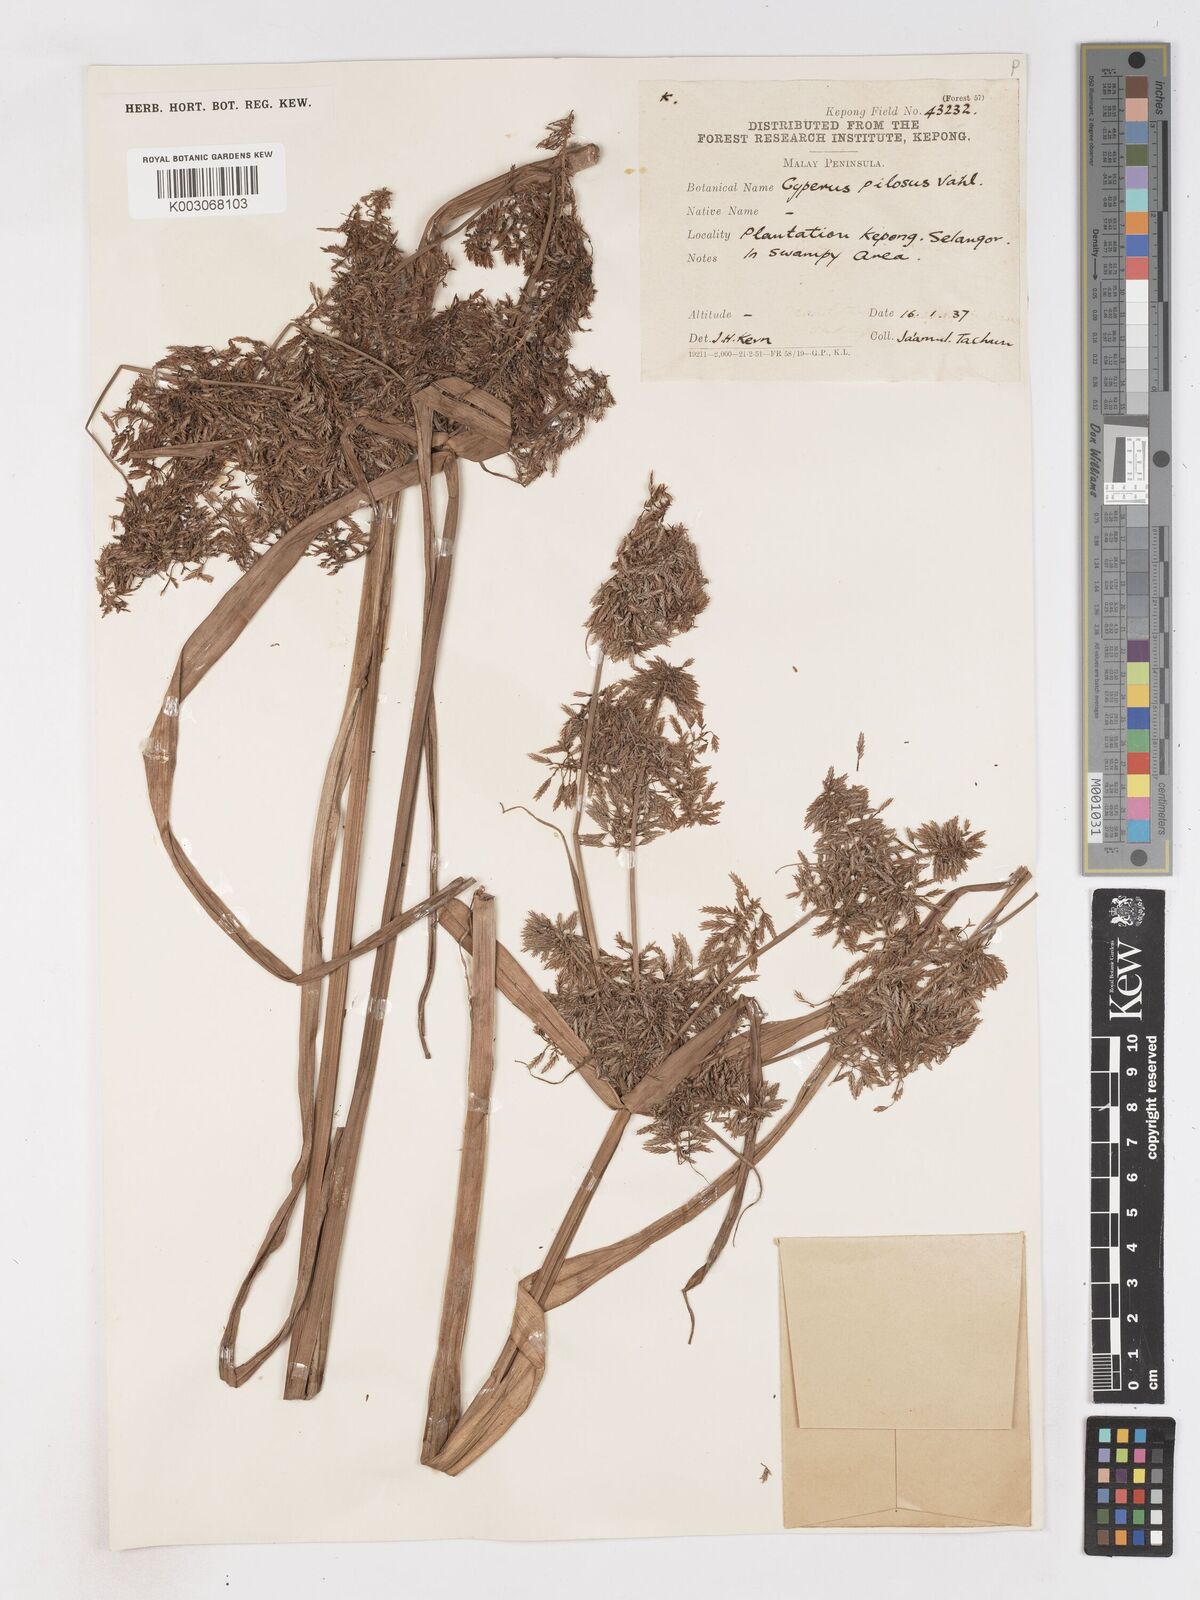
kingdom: Plantae
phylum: Tracheophyta
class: Liliopsida
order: Poales
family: Cyperaceae
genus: Cyperus
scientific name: Cyperus pilosus
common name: Fuzzy flatsedge
